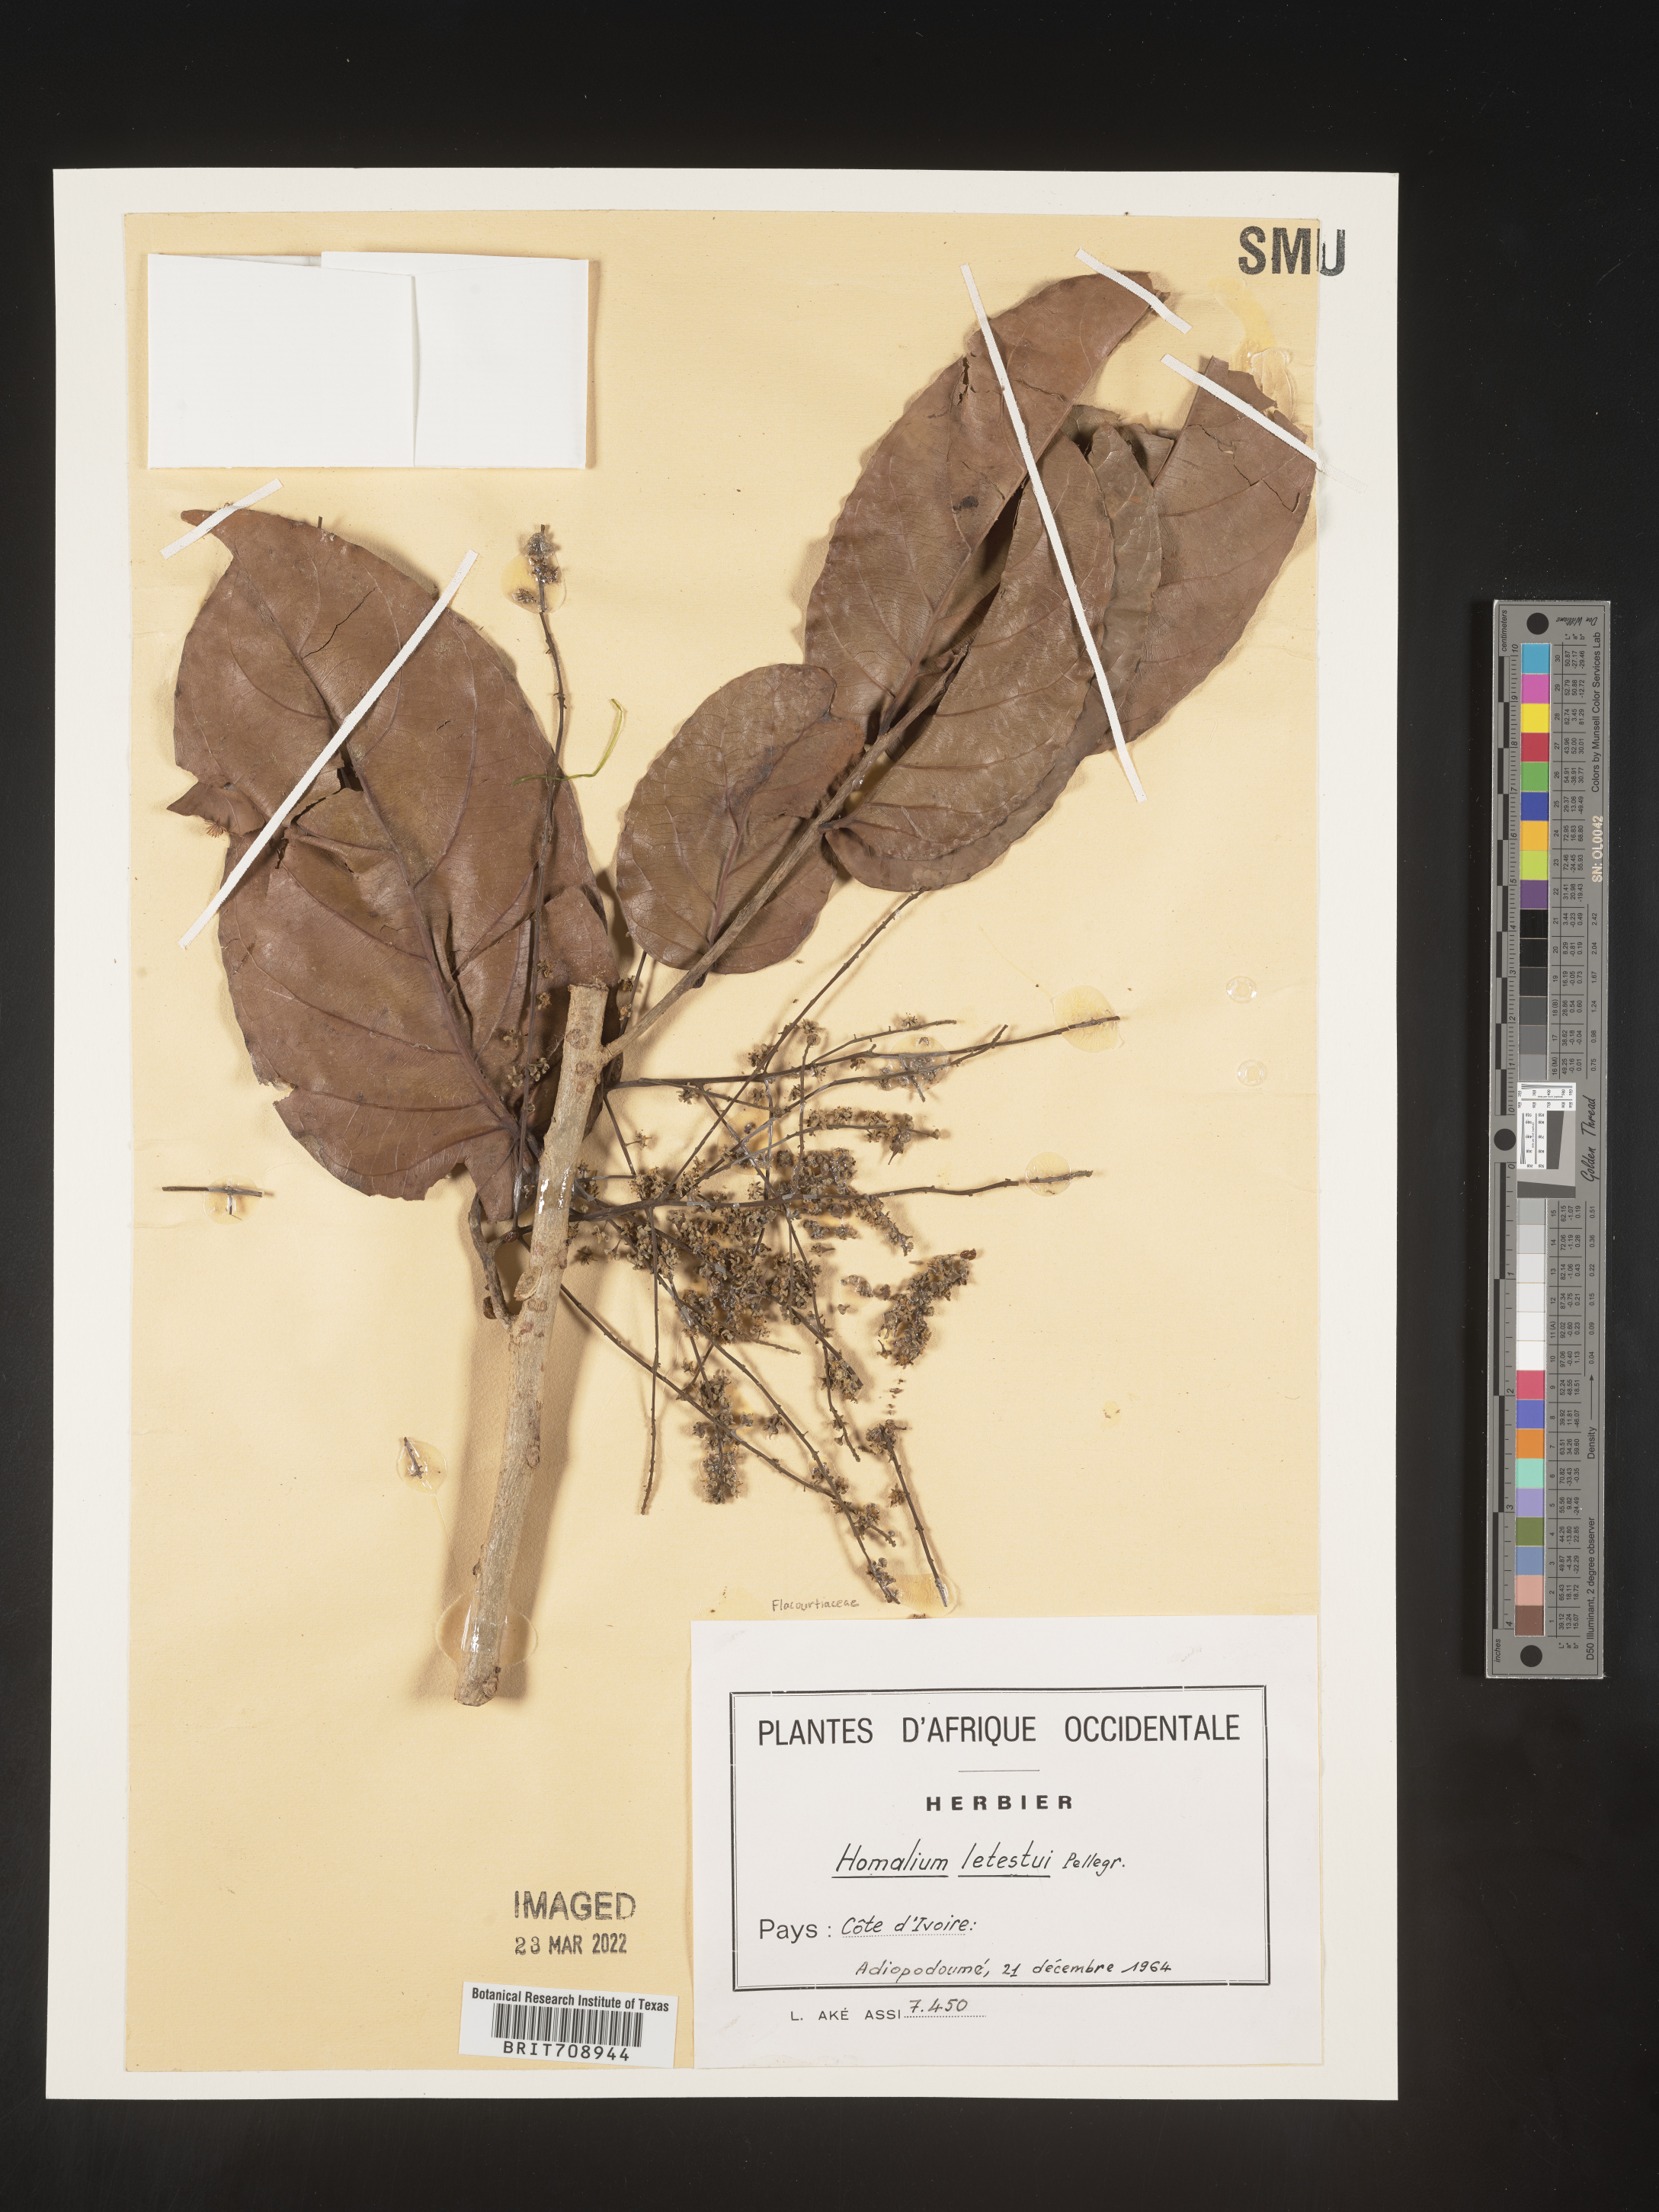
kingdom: Plantae
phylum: Tracheophyta
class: Magnoliopsida
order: Malpighiales
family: Salicaceae
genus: Homalium
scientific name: Homalium
